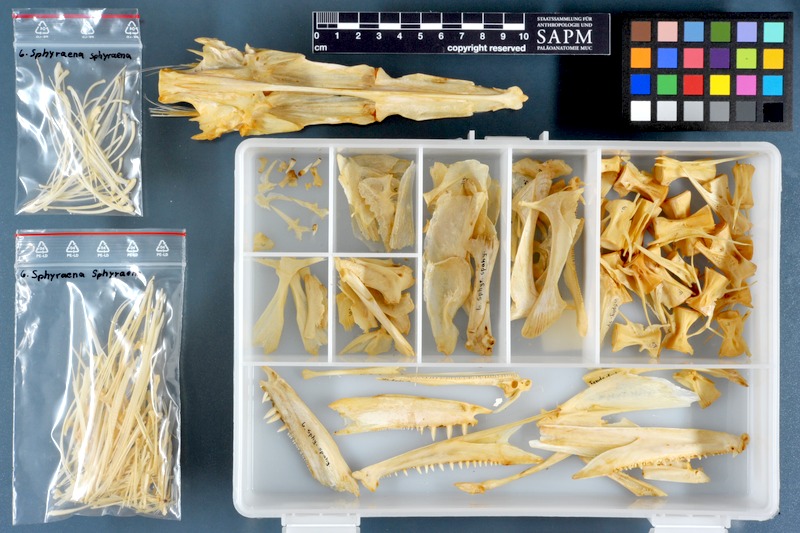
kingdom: Animalia
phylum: Chordata
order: Perciformes
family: Sphyraenidae
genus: Sphyraena
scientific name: Sphyraena sphyraena
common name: European barracuda
